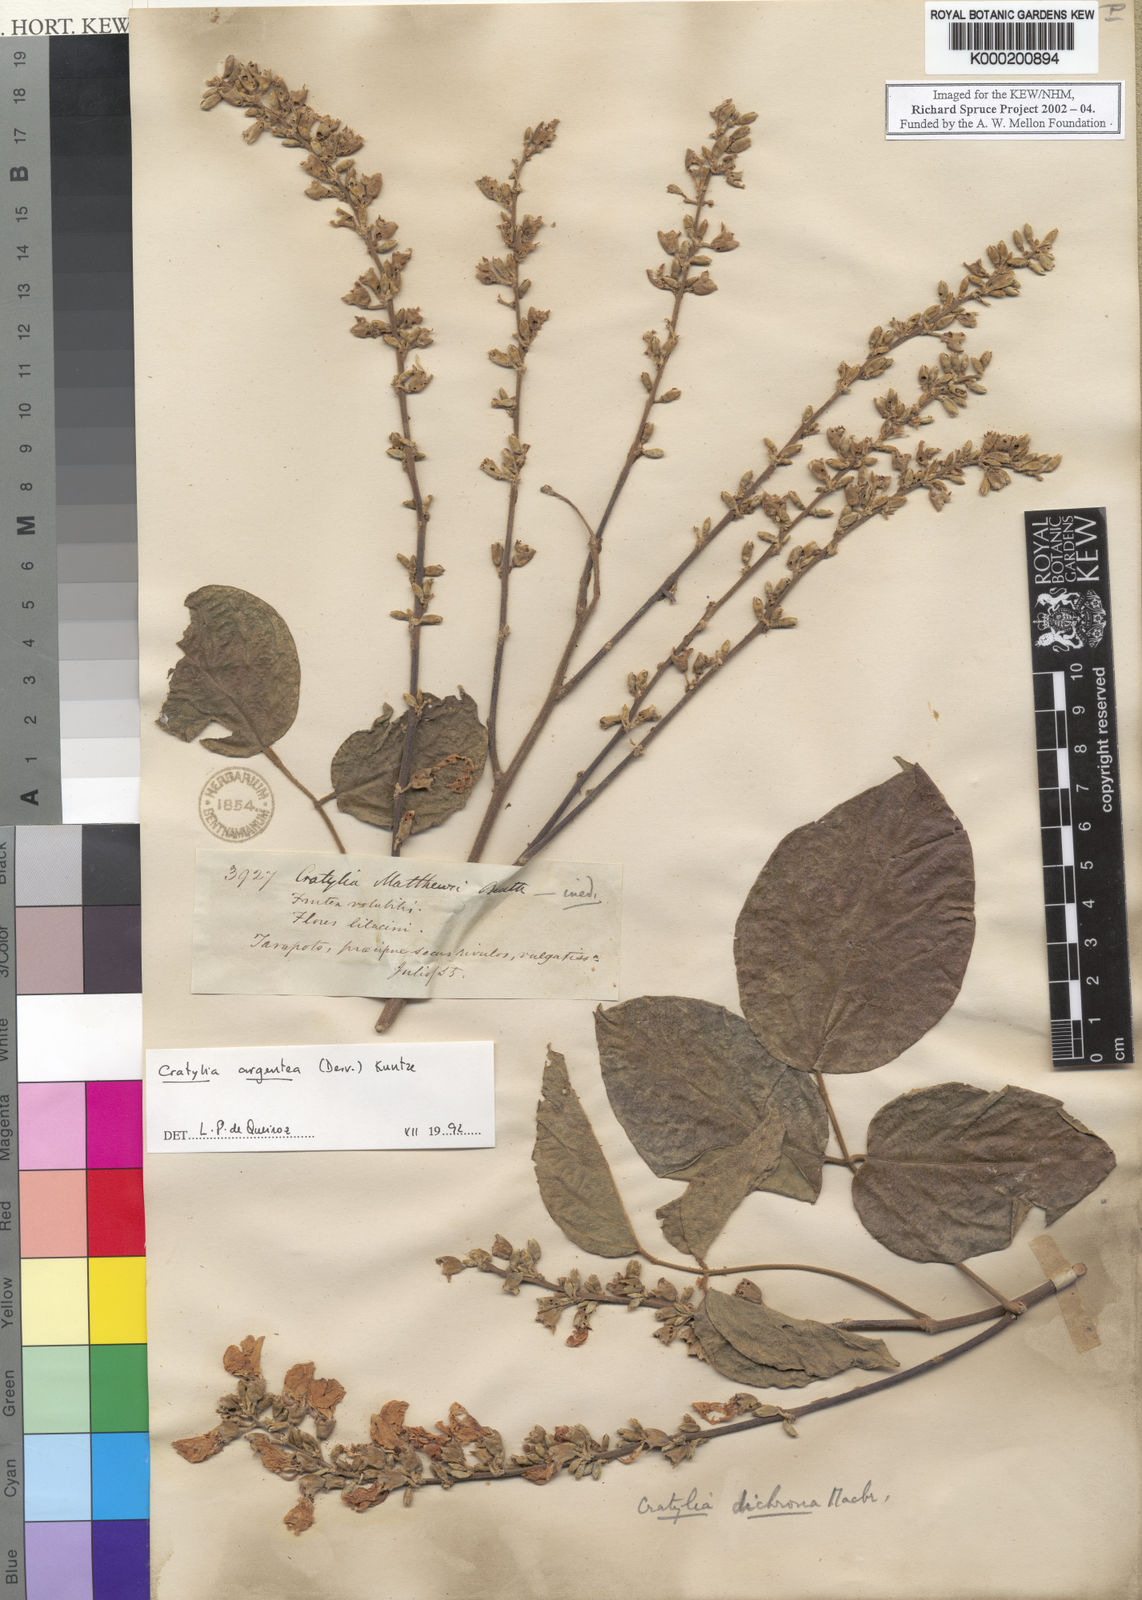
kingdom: Plantae
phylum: Tracheophyta
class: Magnoliopsida
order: Fabales
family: Fabaceae
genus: Cratylia
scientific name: Cratylia argentea
